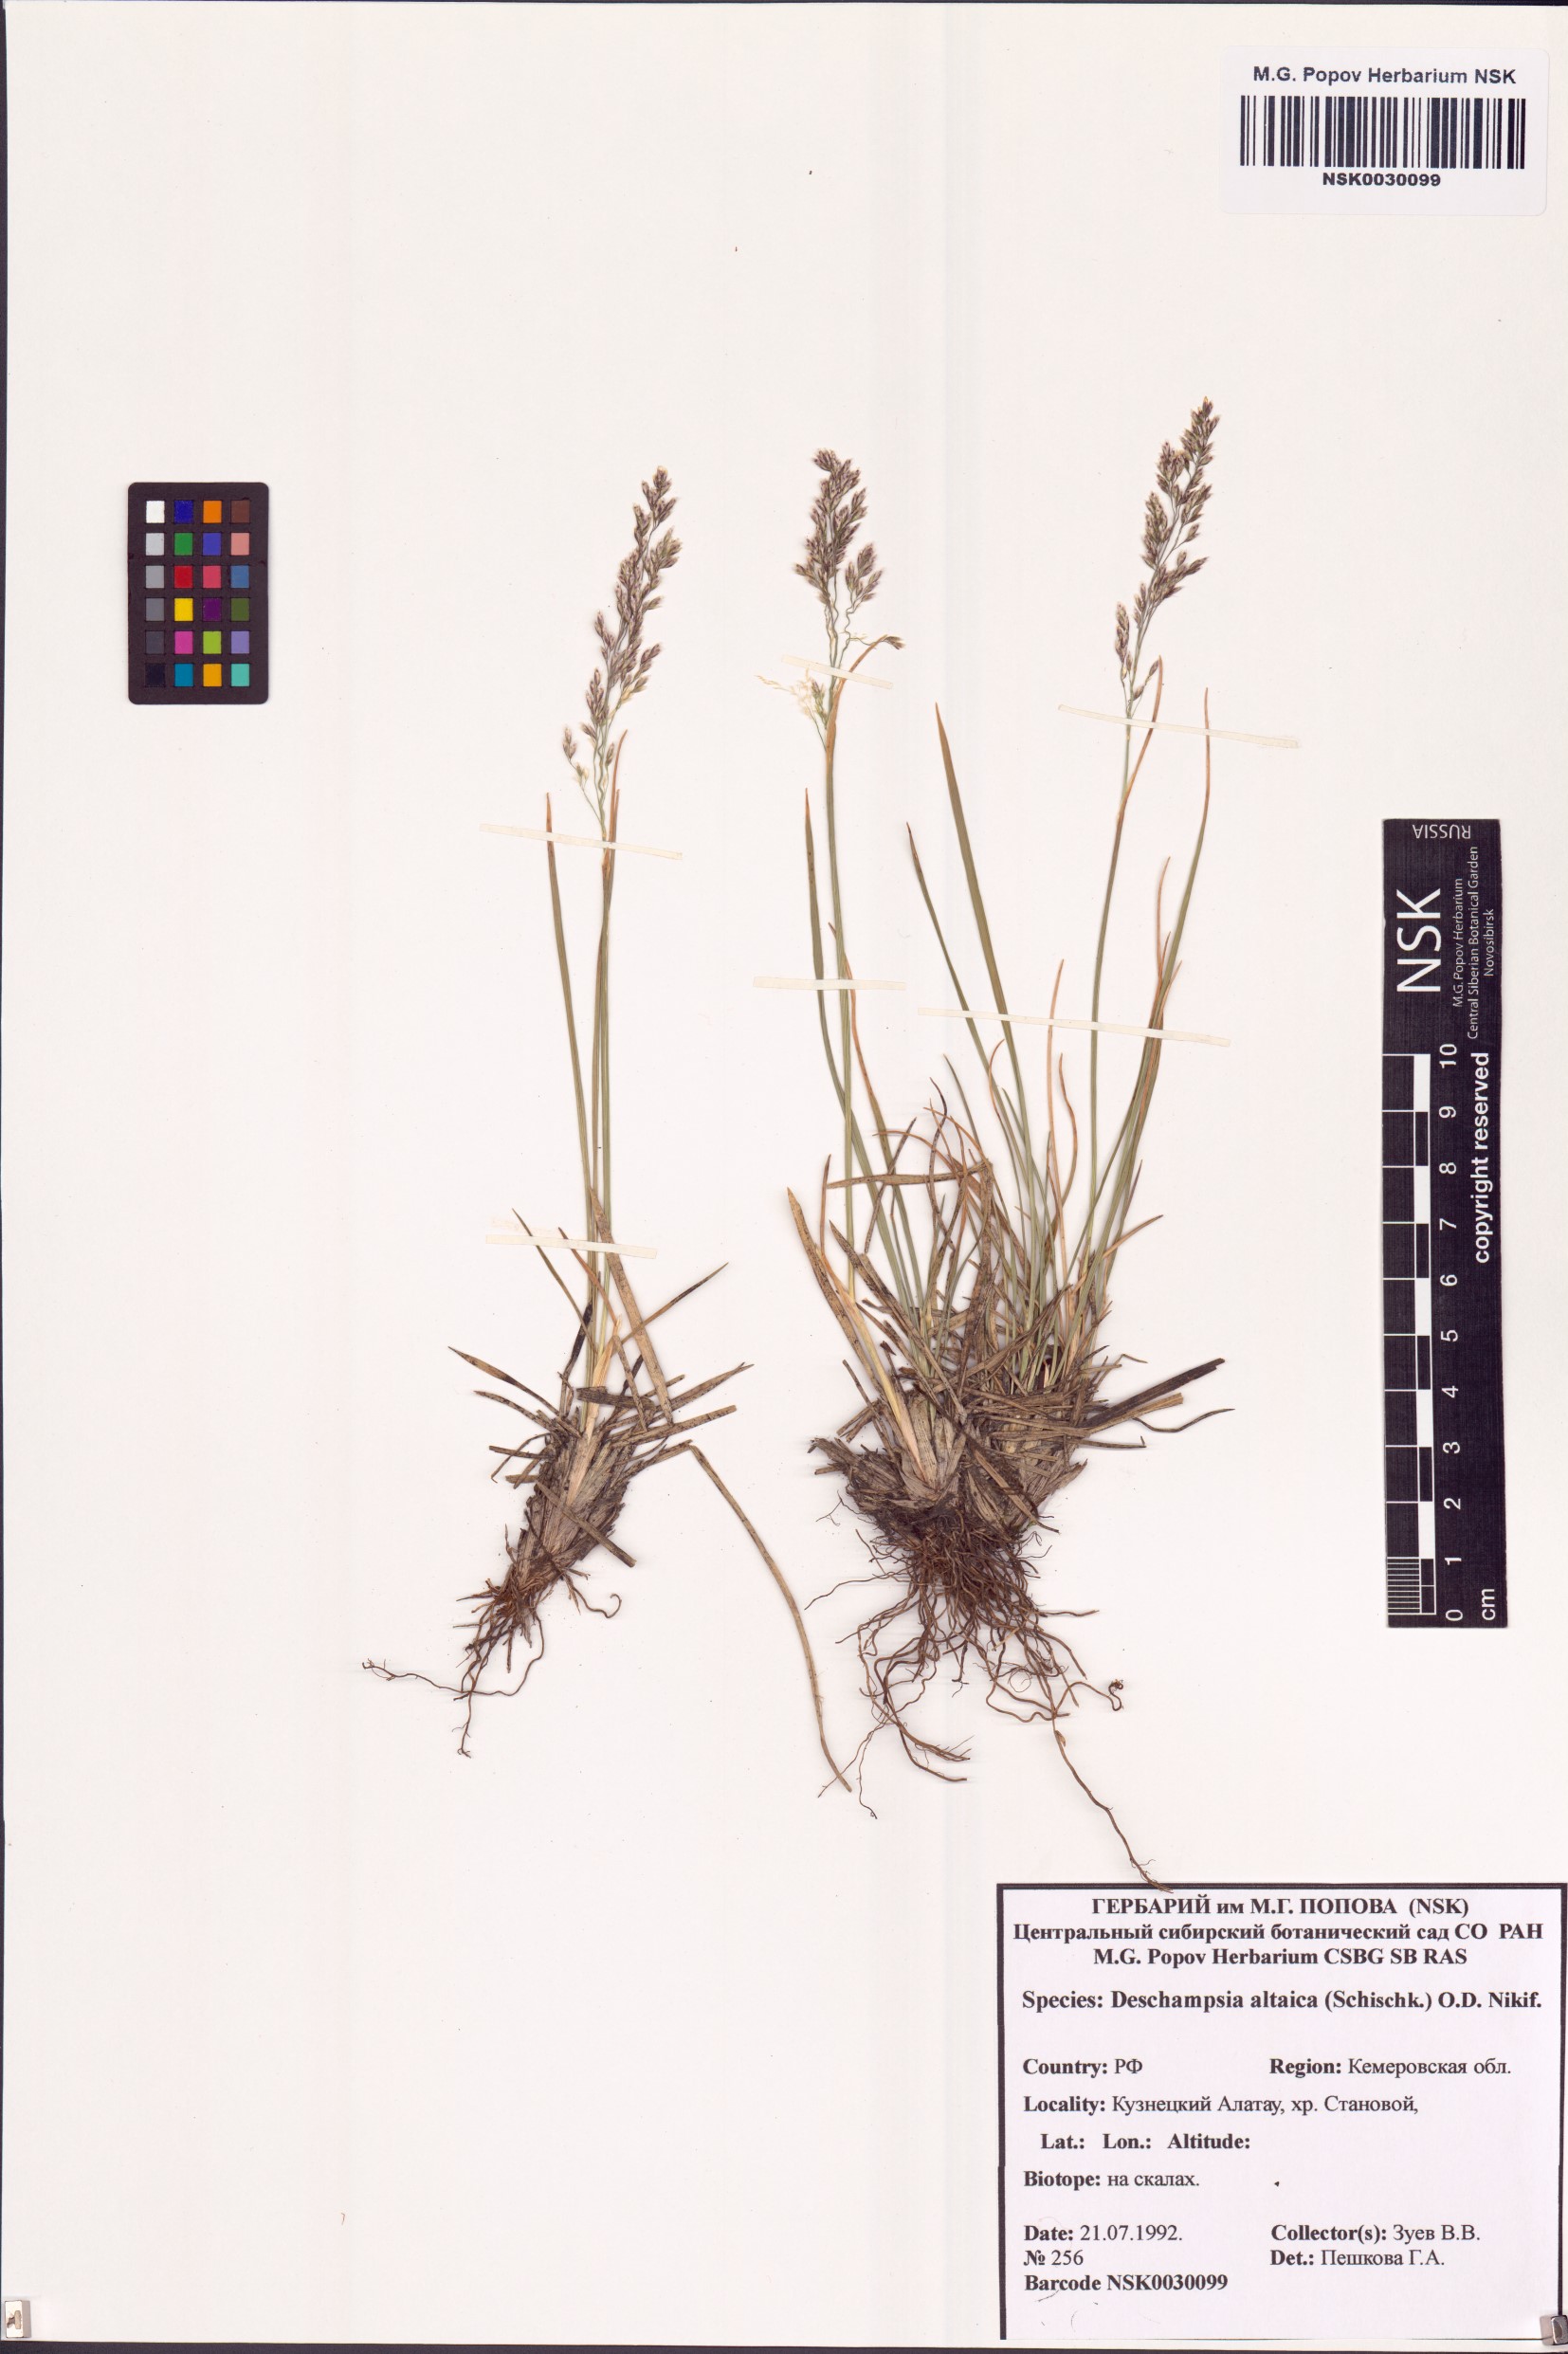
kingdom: Plantae
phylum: Tracheophyta
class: Liliopsida
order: Poales
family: Poaceae
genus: Deschampsia
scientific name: Deschampsia cespitosa
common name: Tufted hair-grass
